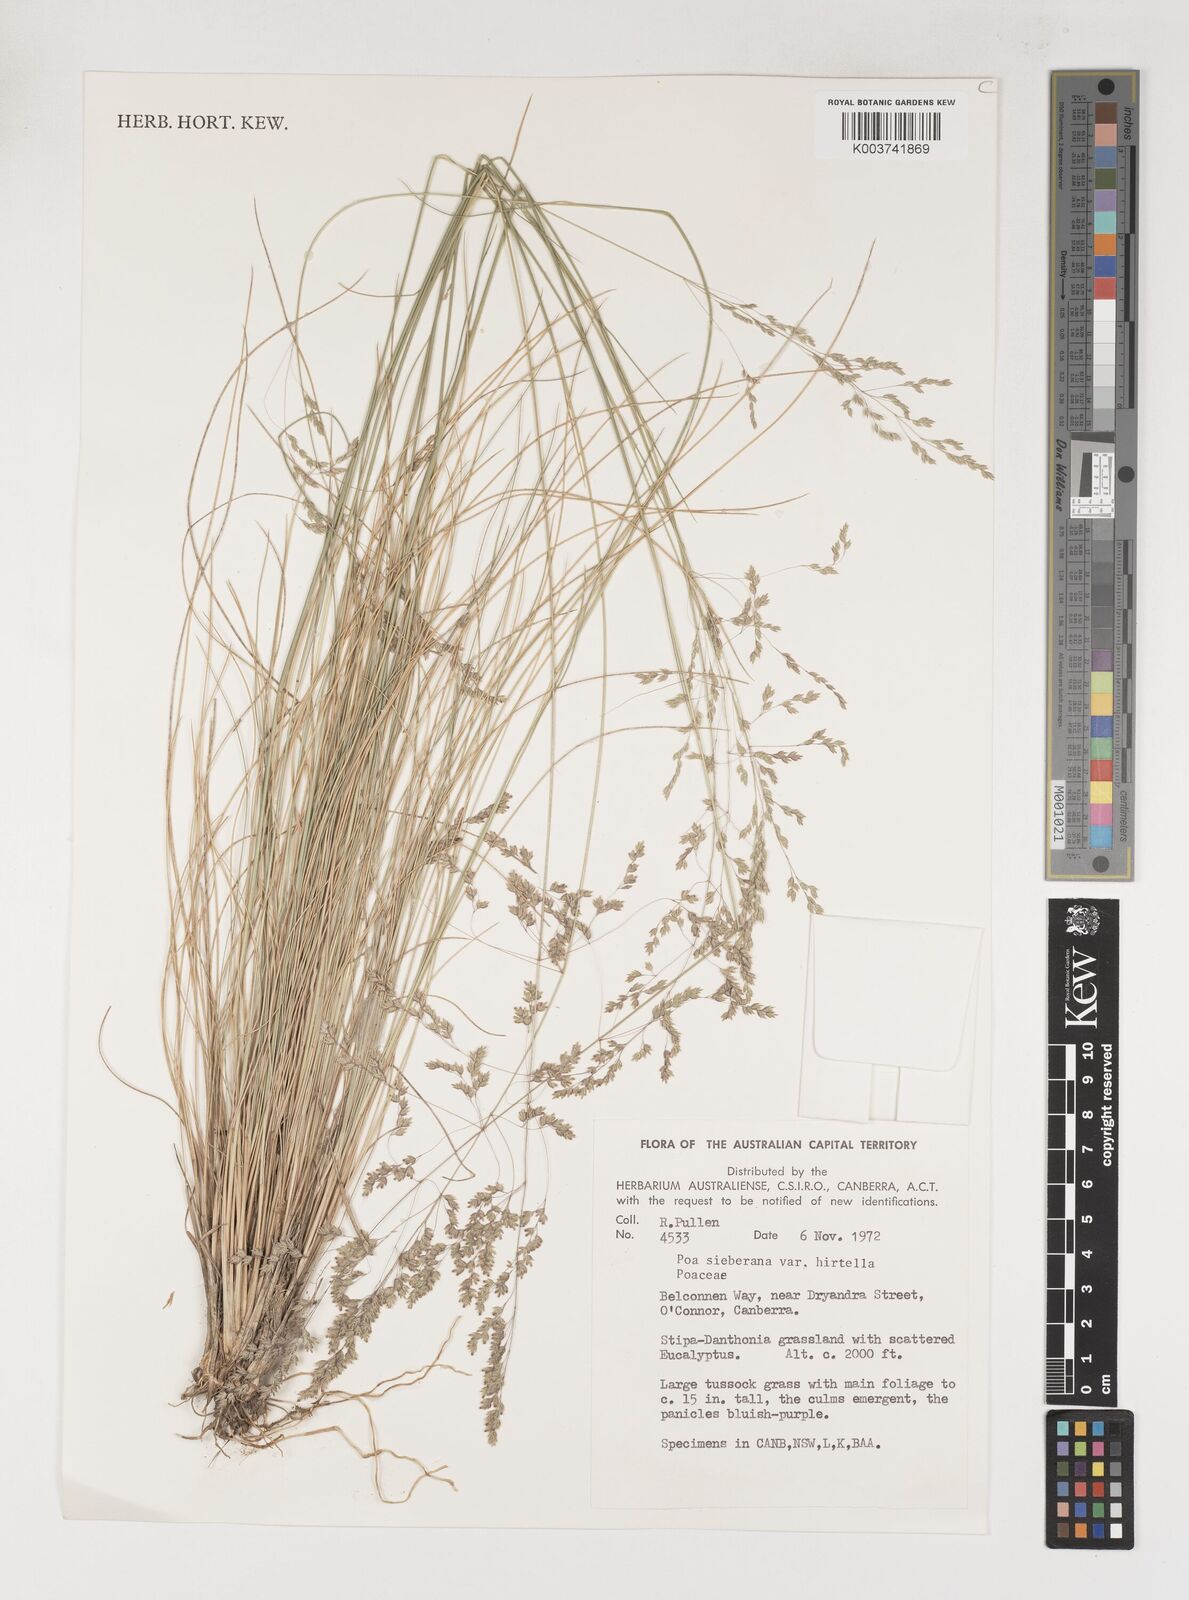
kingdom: Plantae
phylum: Tracheophyta
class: Liliopsida
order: Poales
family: Poaceae
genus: Poa
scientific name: Poa sieberiana
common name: Tussock poa
